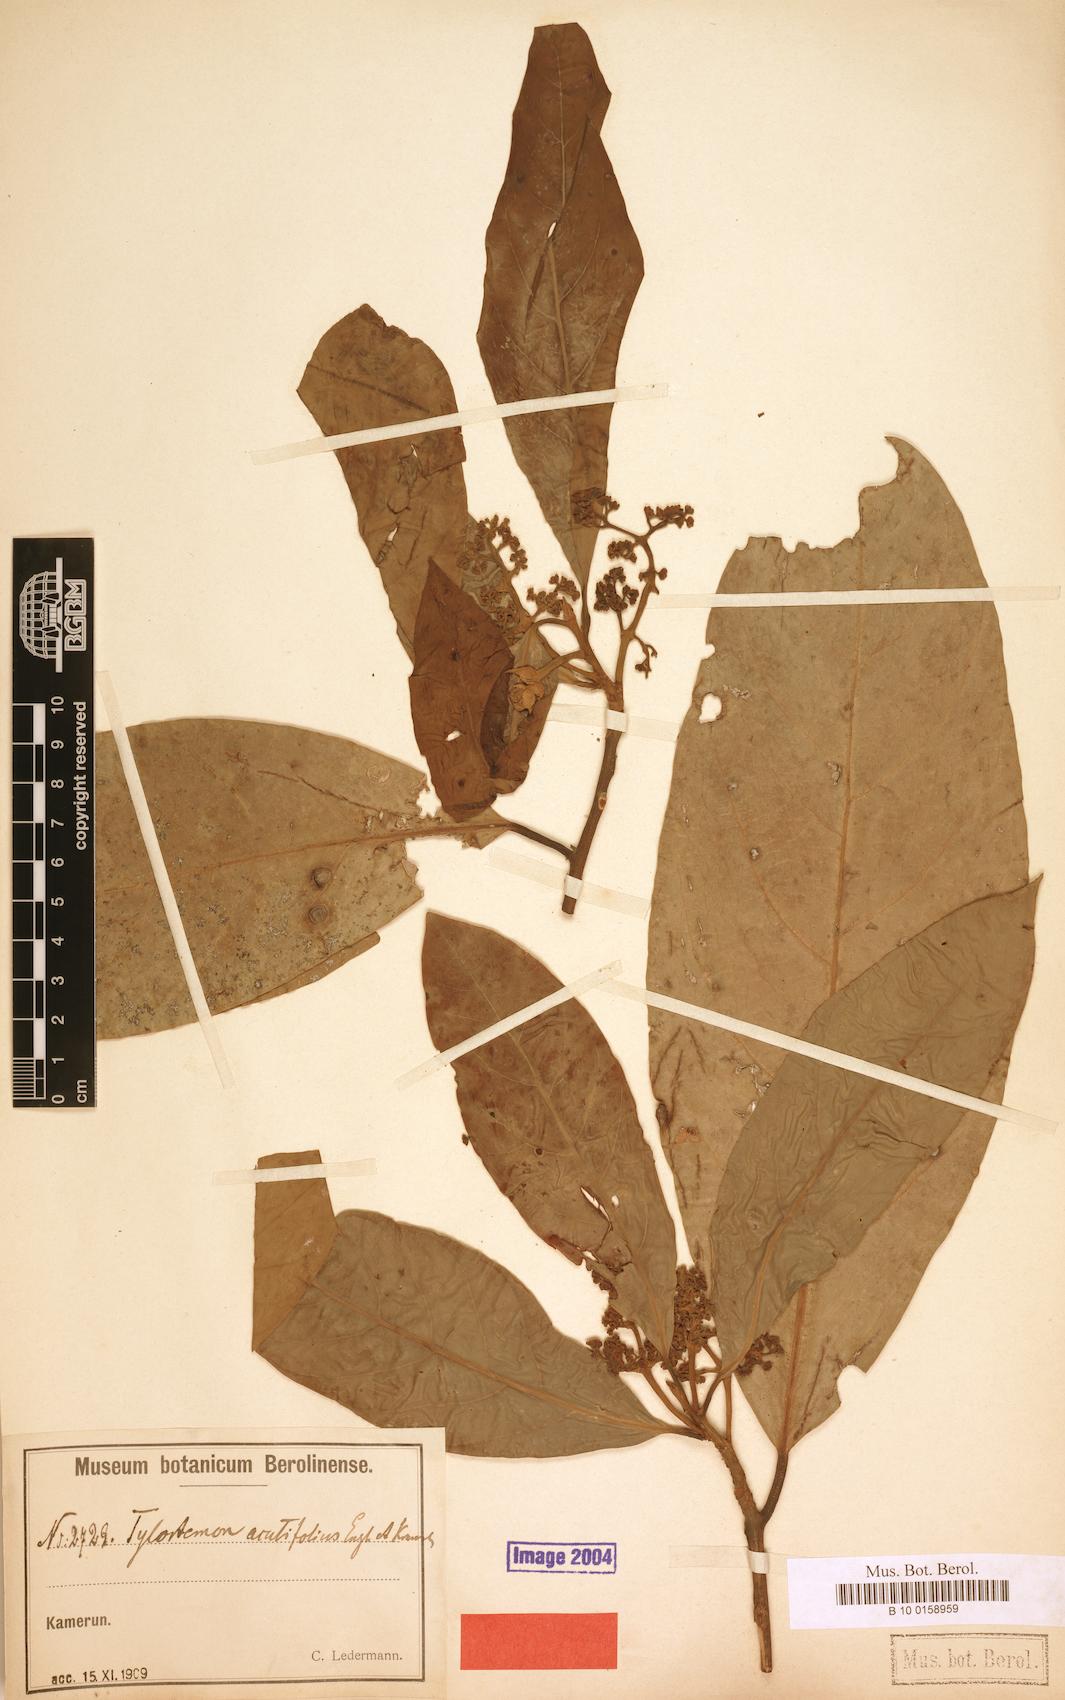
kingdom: Plantae
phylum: Tracheophyta
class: Magnoliopsida
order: Laurales
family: Lauraceae
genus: Beilschmiedia
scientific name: Beilschmiedia acuta
